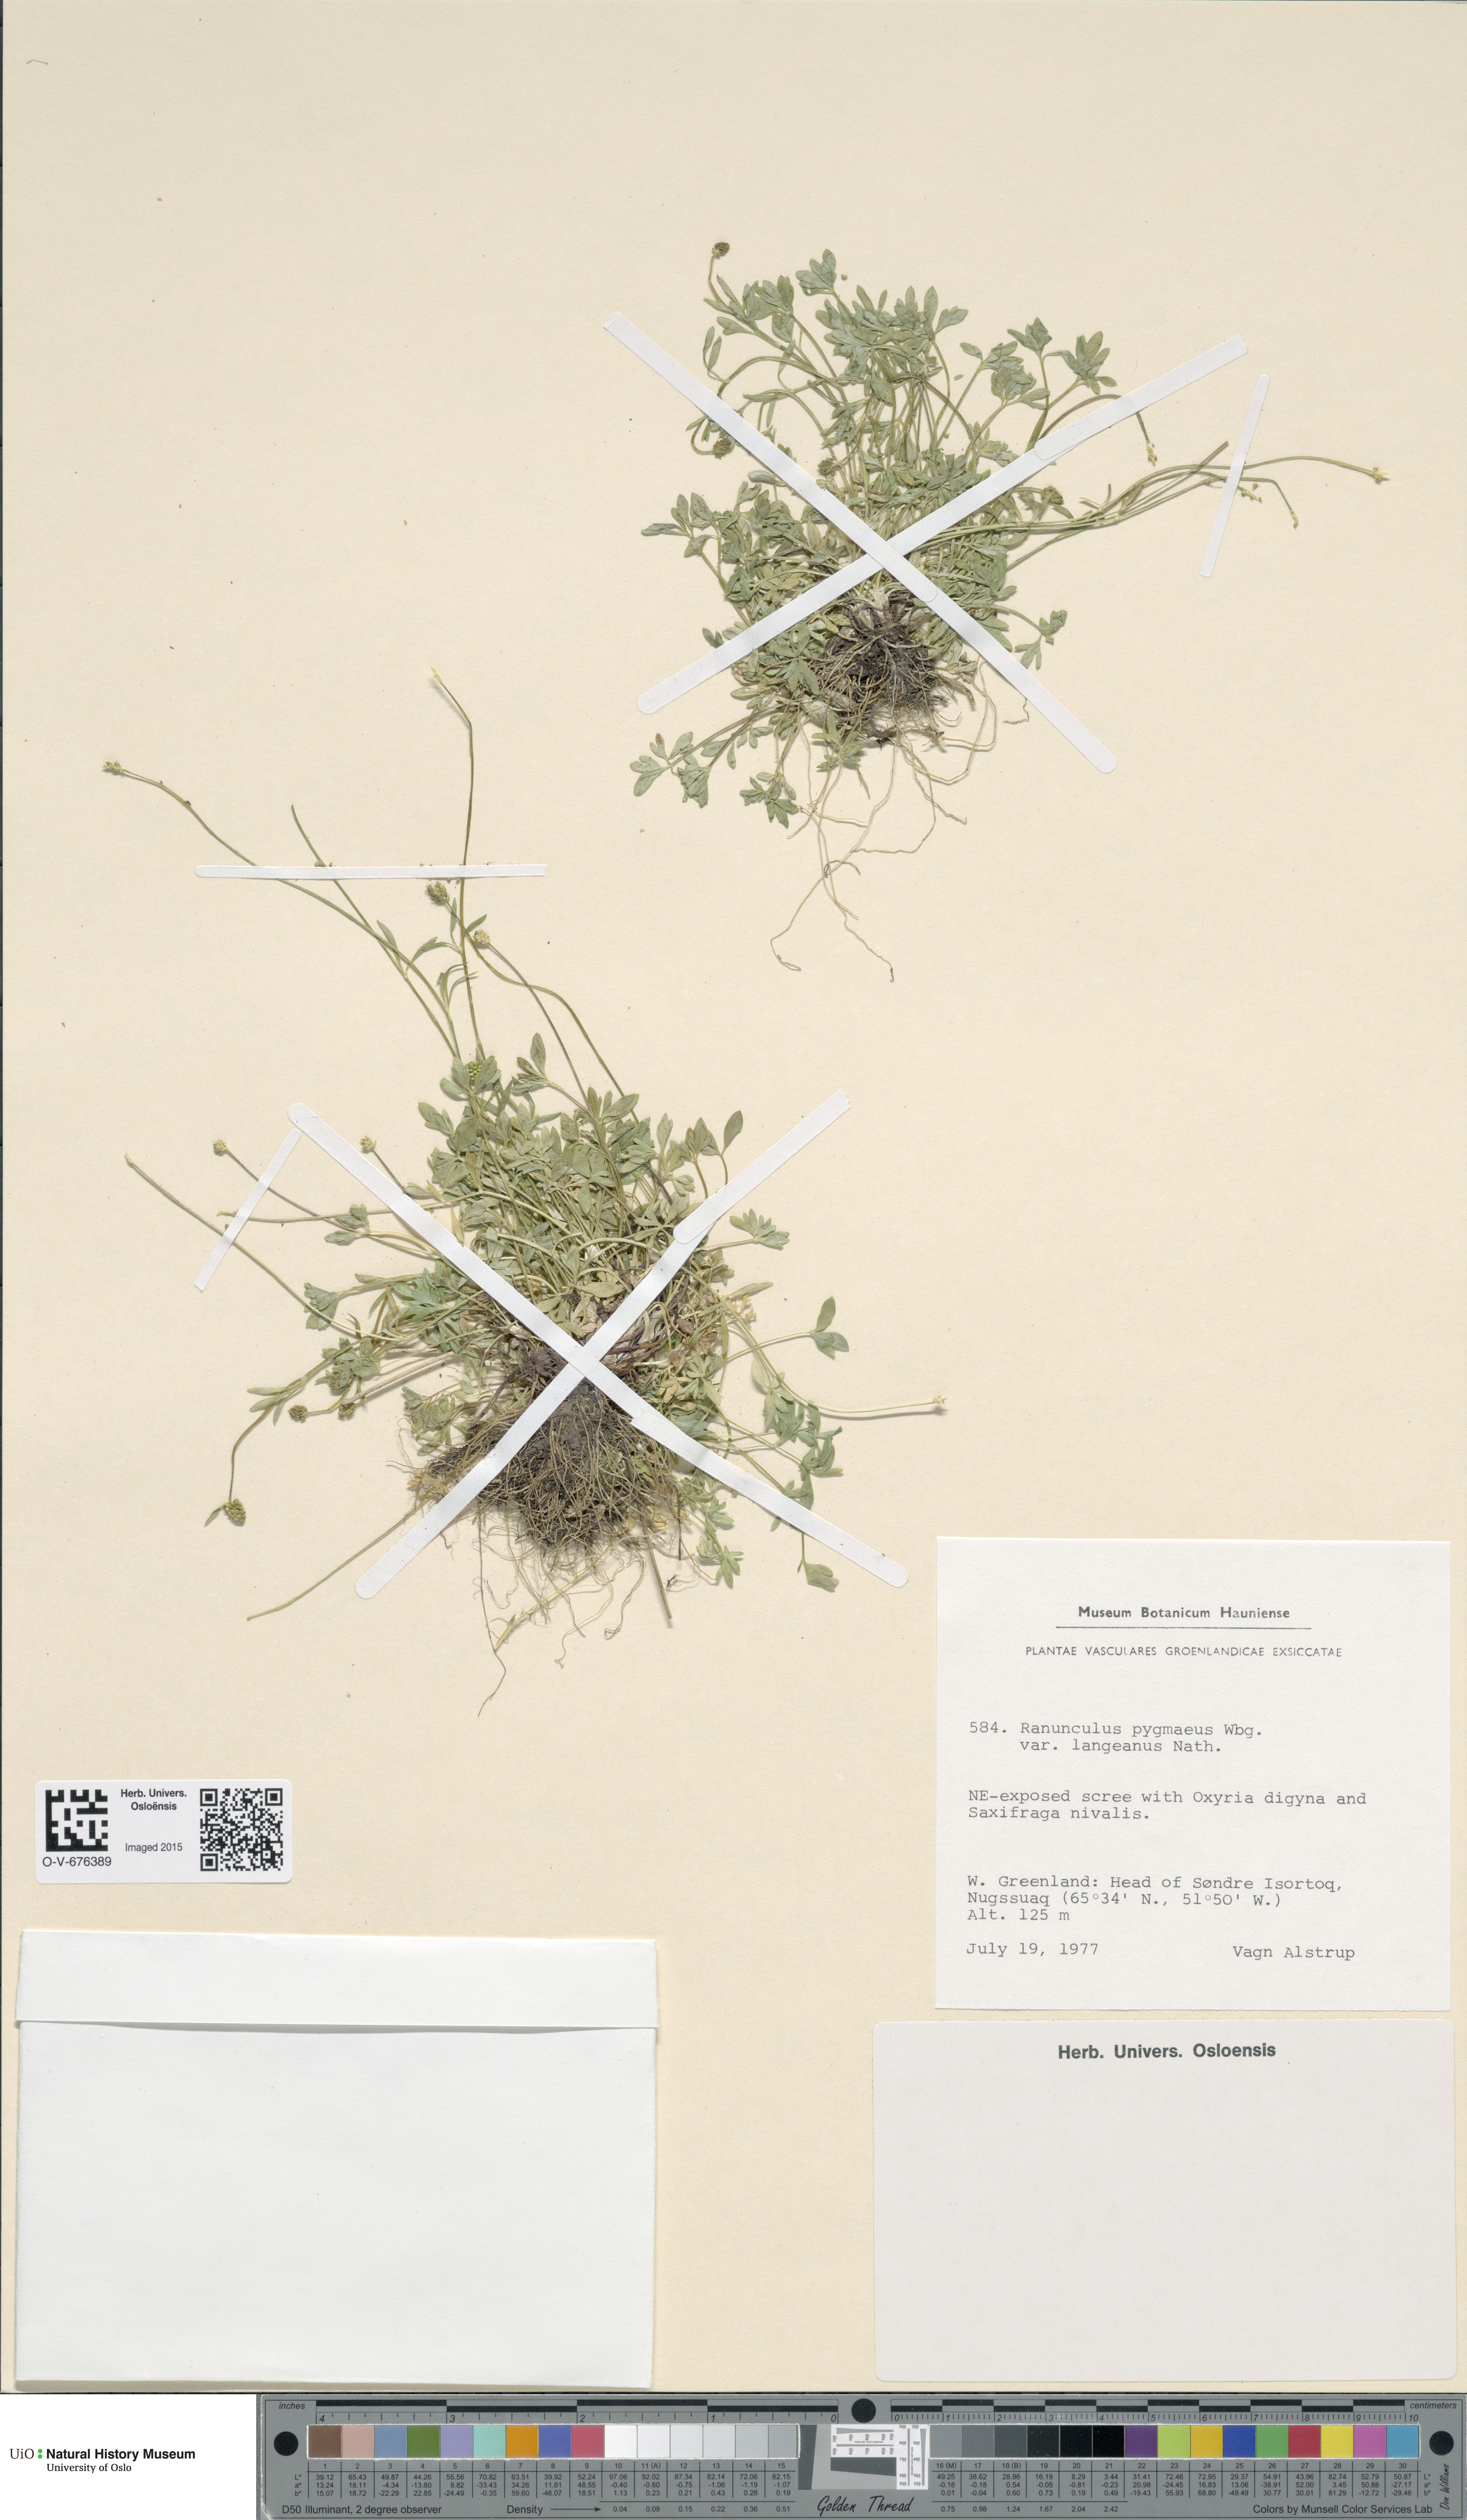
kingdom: Plantae
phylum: Tracheophyta
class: Magnoliopsida
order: Ranunculales
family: Ranunculaceae
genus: Ranunculus
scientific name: Ranunculus pygmaeus
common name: Dwarf buttercup
